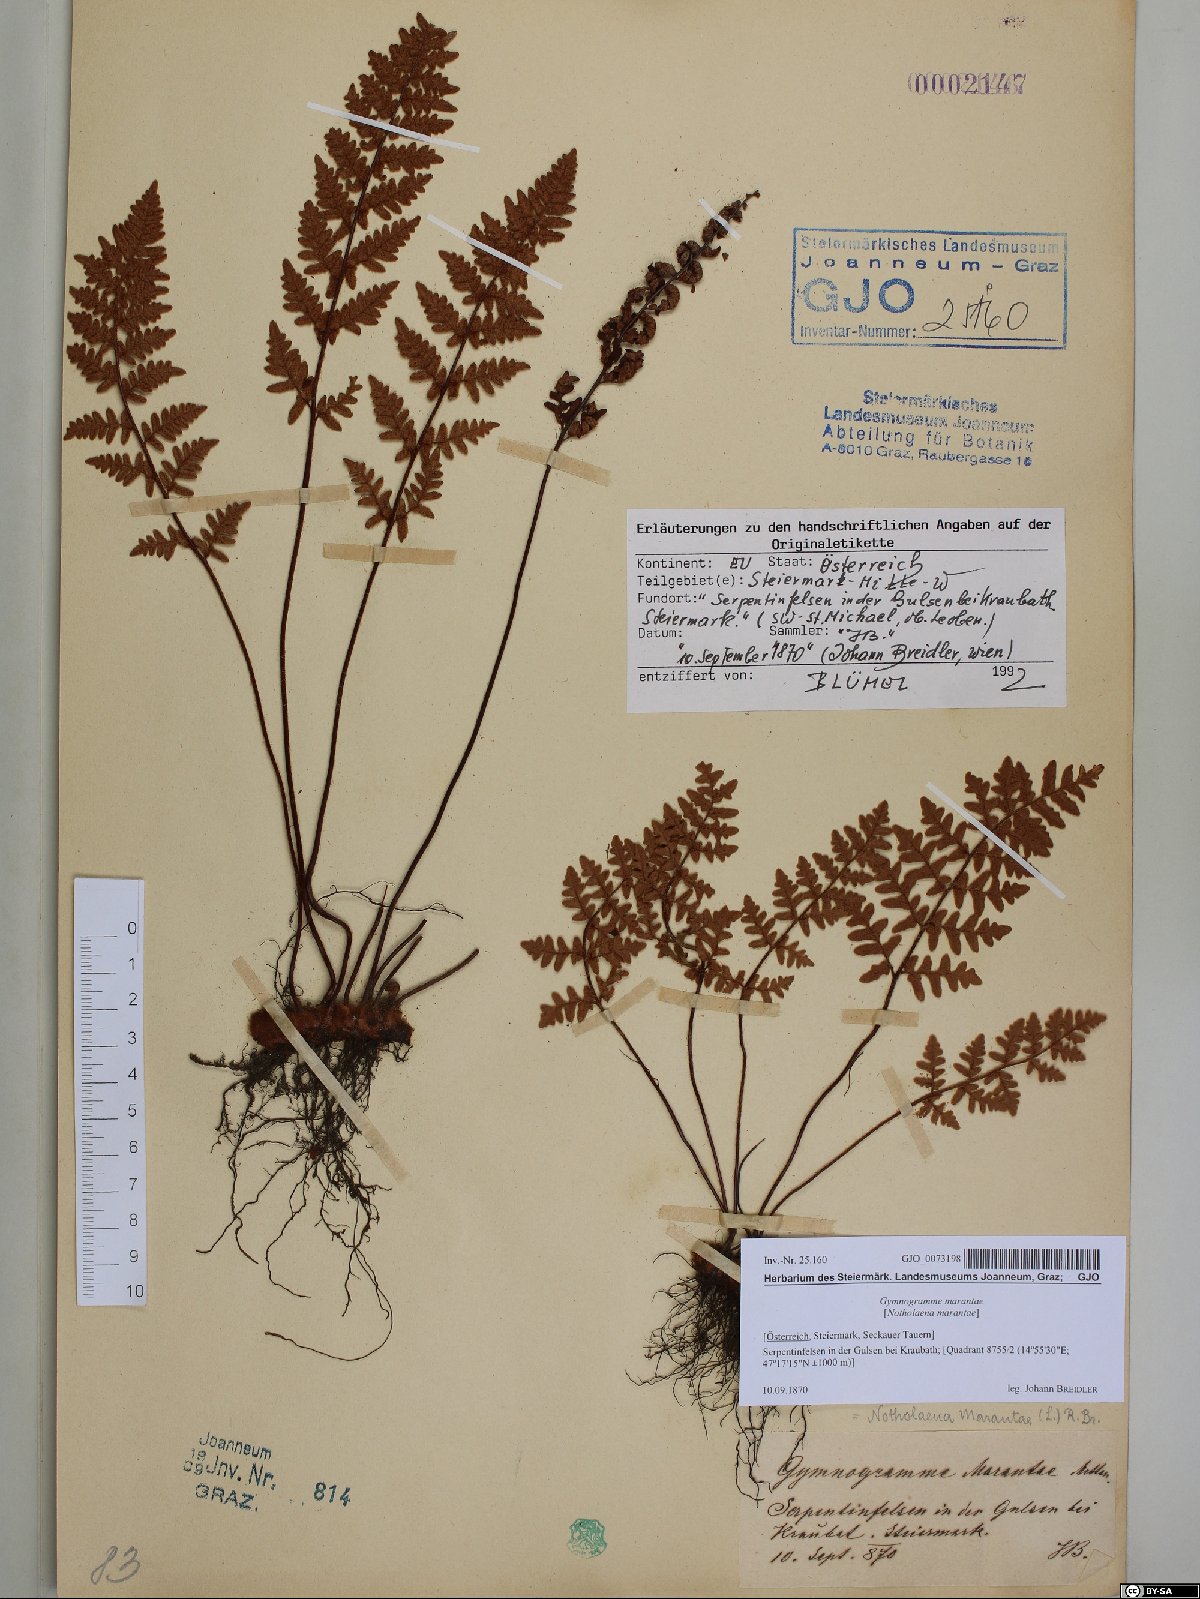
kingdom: Plantae
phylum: Tracheophyta
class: Polypodiopsida
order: Polypodiales
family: Pteridaceae
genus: Paragymnopteris
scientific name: Paragymnopteris marantae
